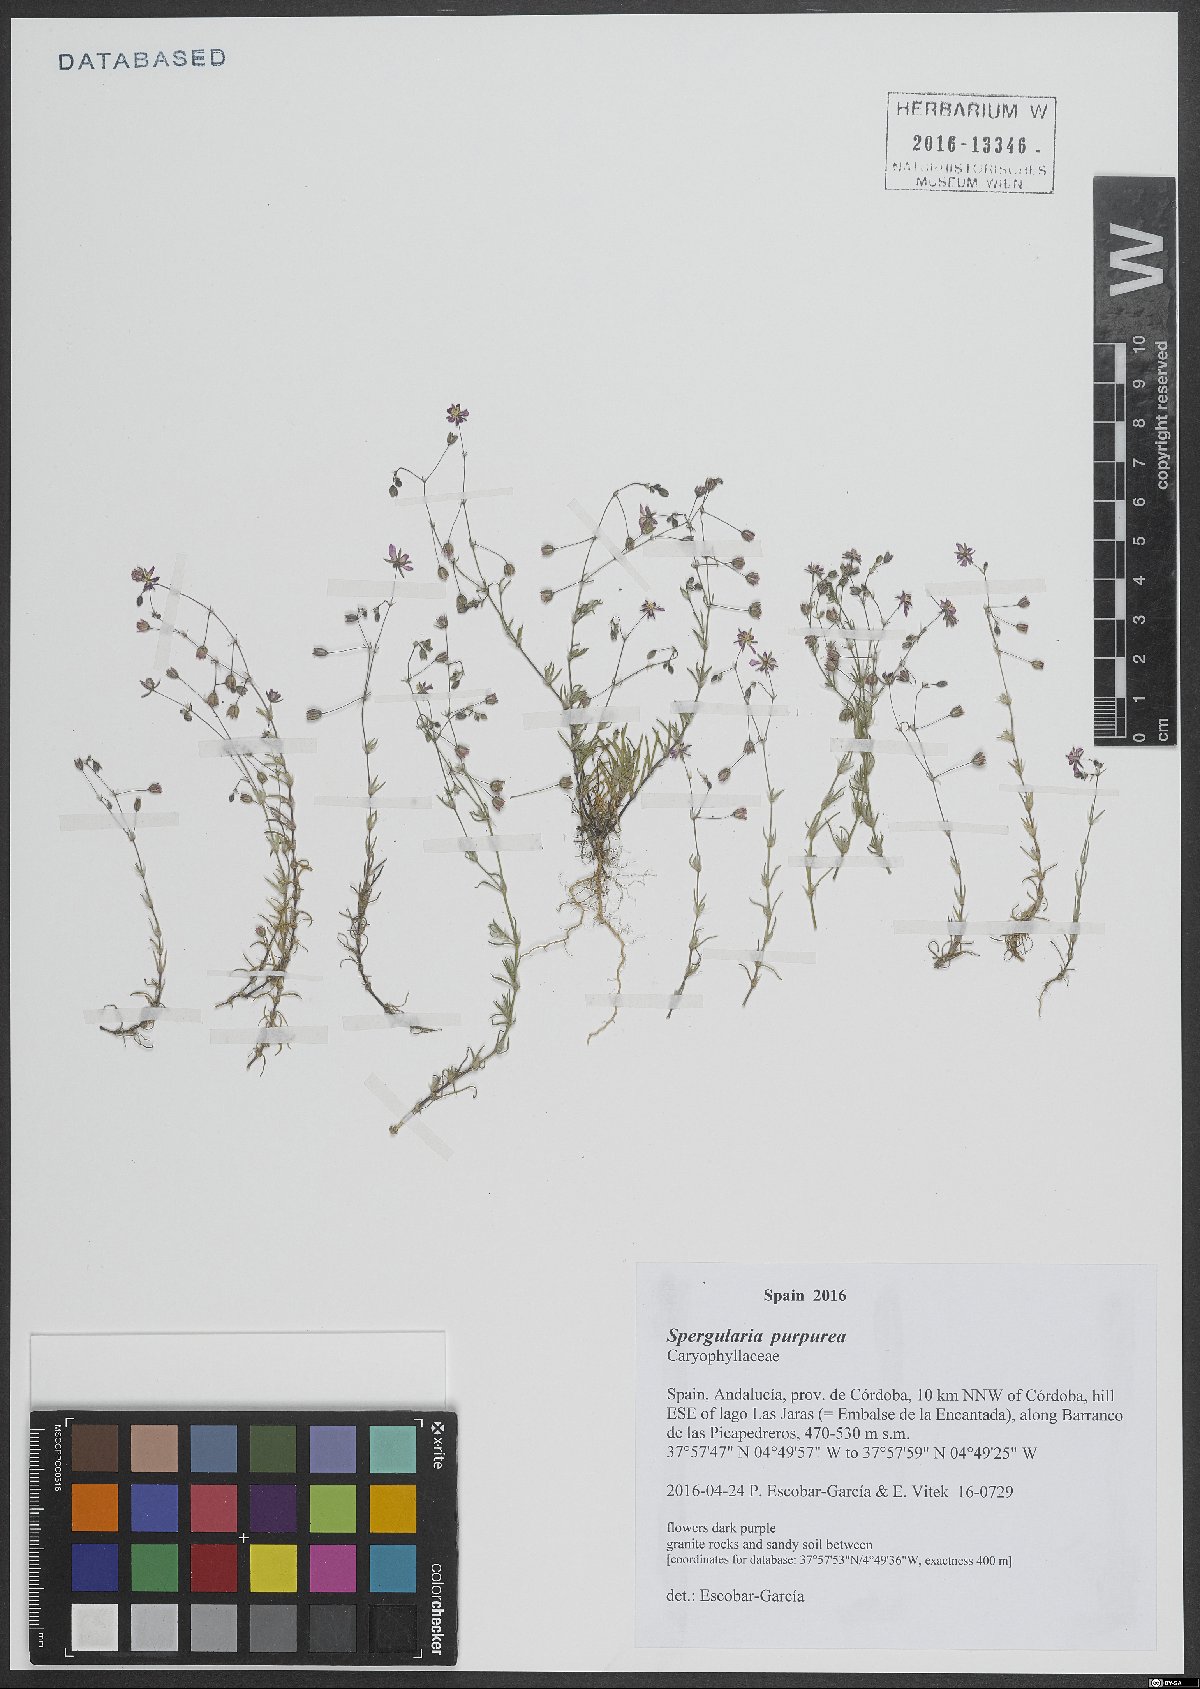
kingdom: Plantae
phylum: Tracheophyta
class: Magnoliopsida
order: Caryophyllales
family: Caryophyllaceae
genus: Spergularia
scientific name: Spergularia purpurea
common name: Purple sandspurry
